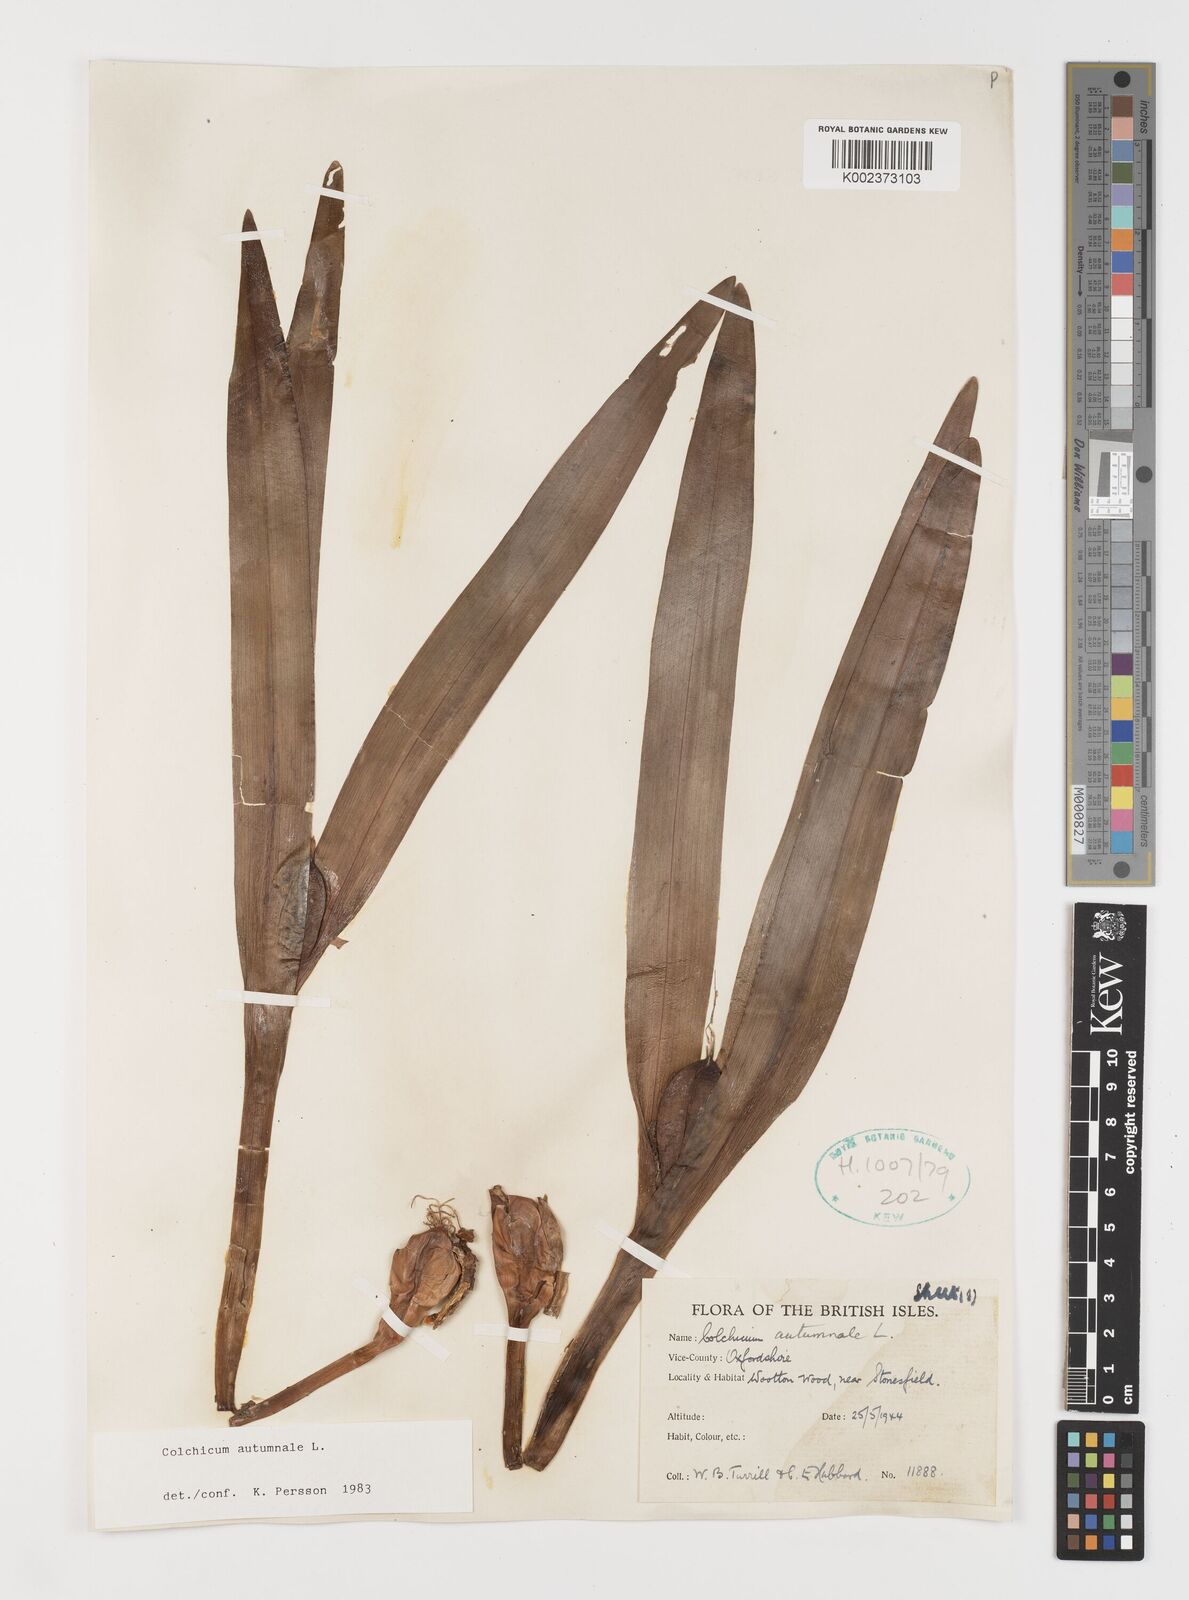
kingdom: Plantae
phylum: Tracheophyta
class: Liliopsida
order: Liliales
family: Colchicaceae
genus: Colchicum
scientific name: Colchicum autumnale
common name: Autumn crocus
